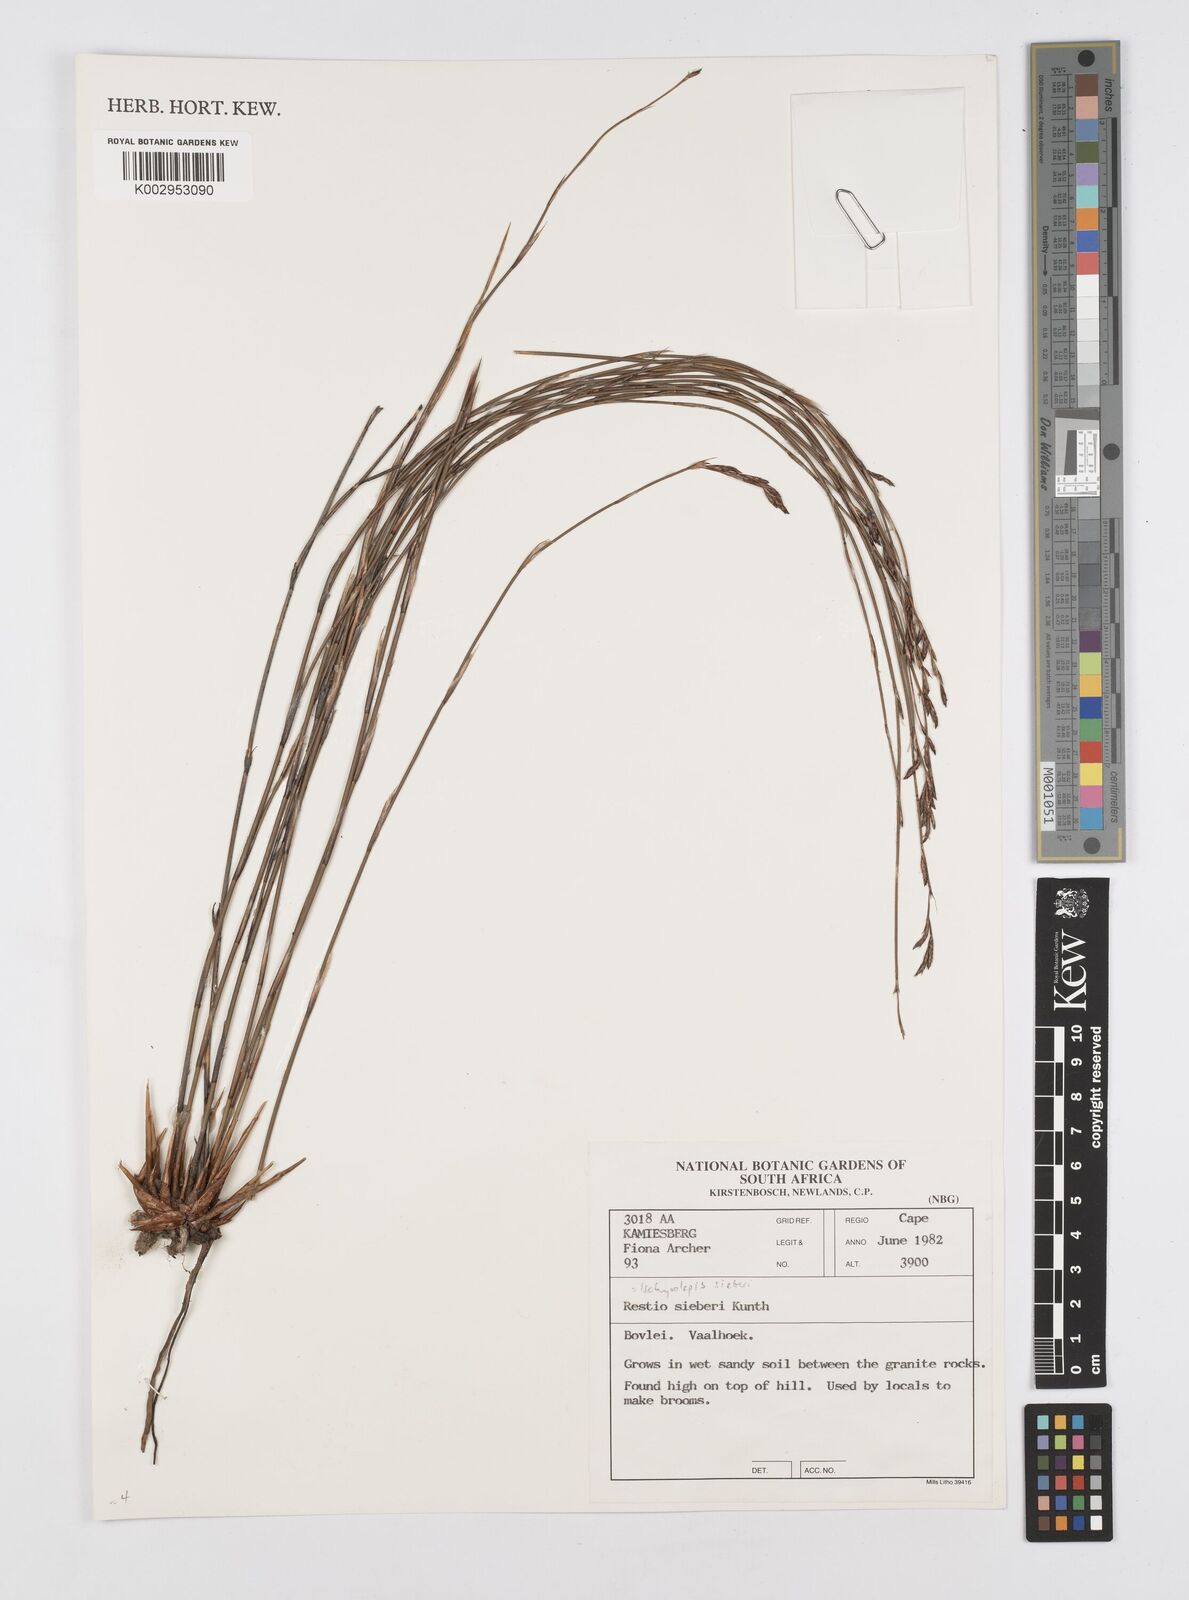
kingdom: Plantae
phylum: Tracheophyta
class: Liliopsida
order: Poales
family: Restionaceae
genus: Restio
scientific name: Restio sieberi
